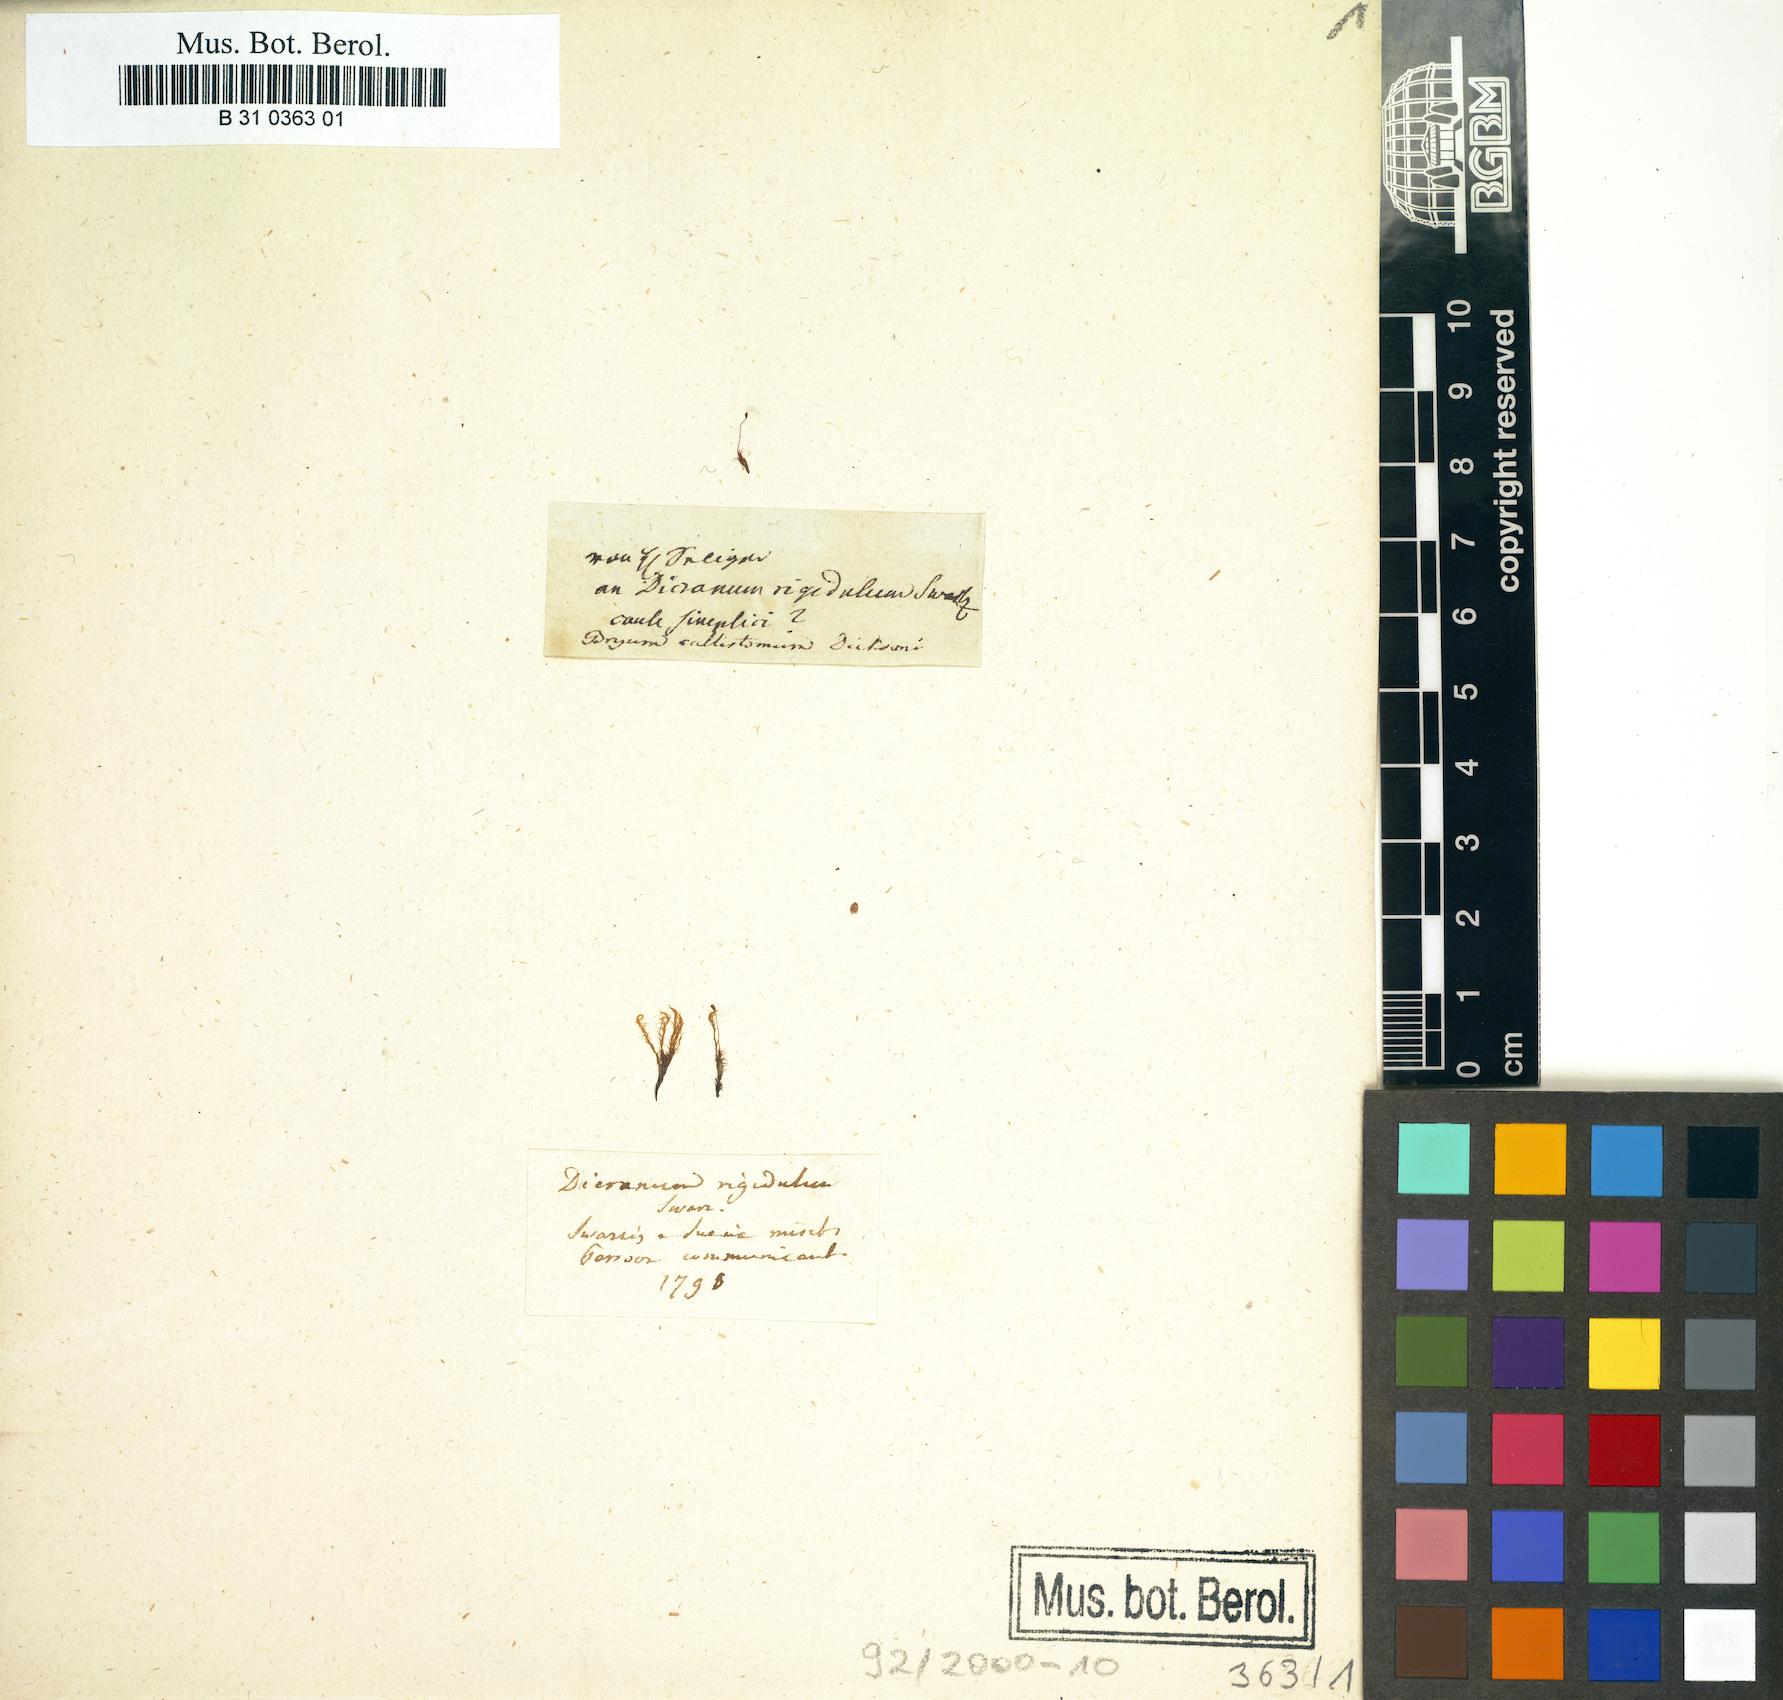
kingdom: Plantae
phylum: Bryophyta
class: Bryopsida
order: Dicranales
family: Dicranaceae
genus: Dicranum
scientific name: Dicranum undulatum
